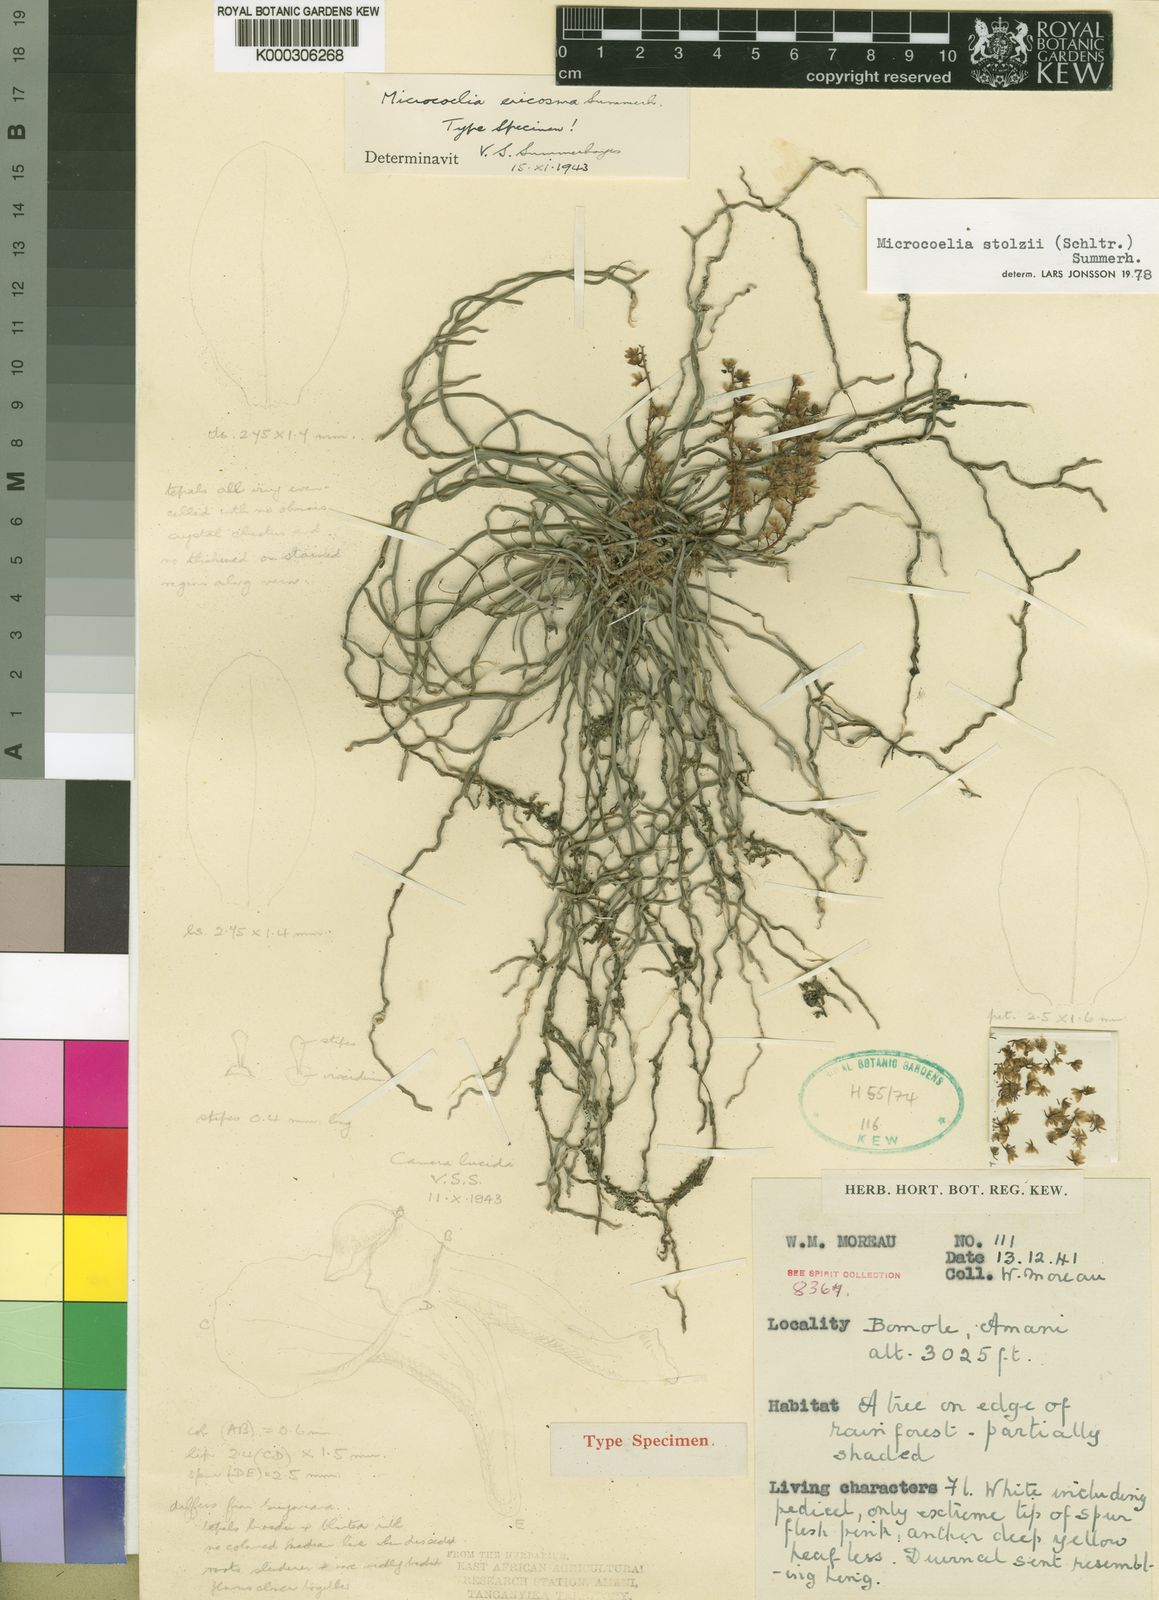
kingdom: Plantae
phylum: Tracheophyta
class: Liliopsida
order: Asparagales
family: Orchidaceae
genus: Microcoelia
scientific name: Microcoelia stolzii
